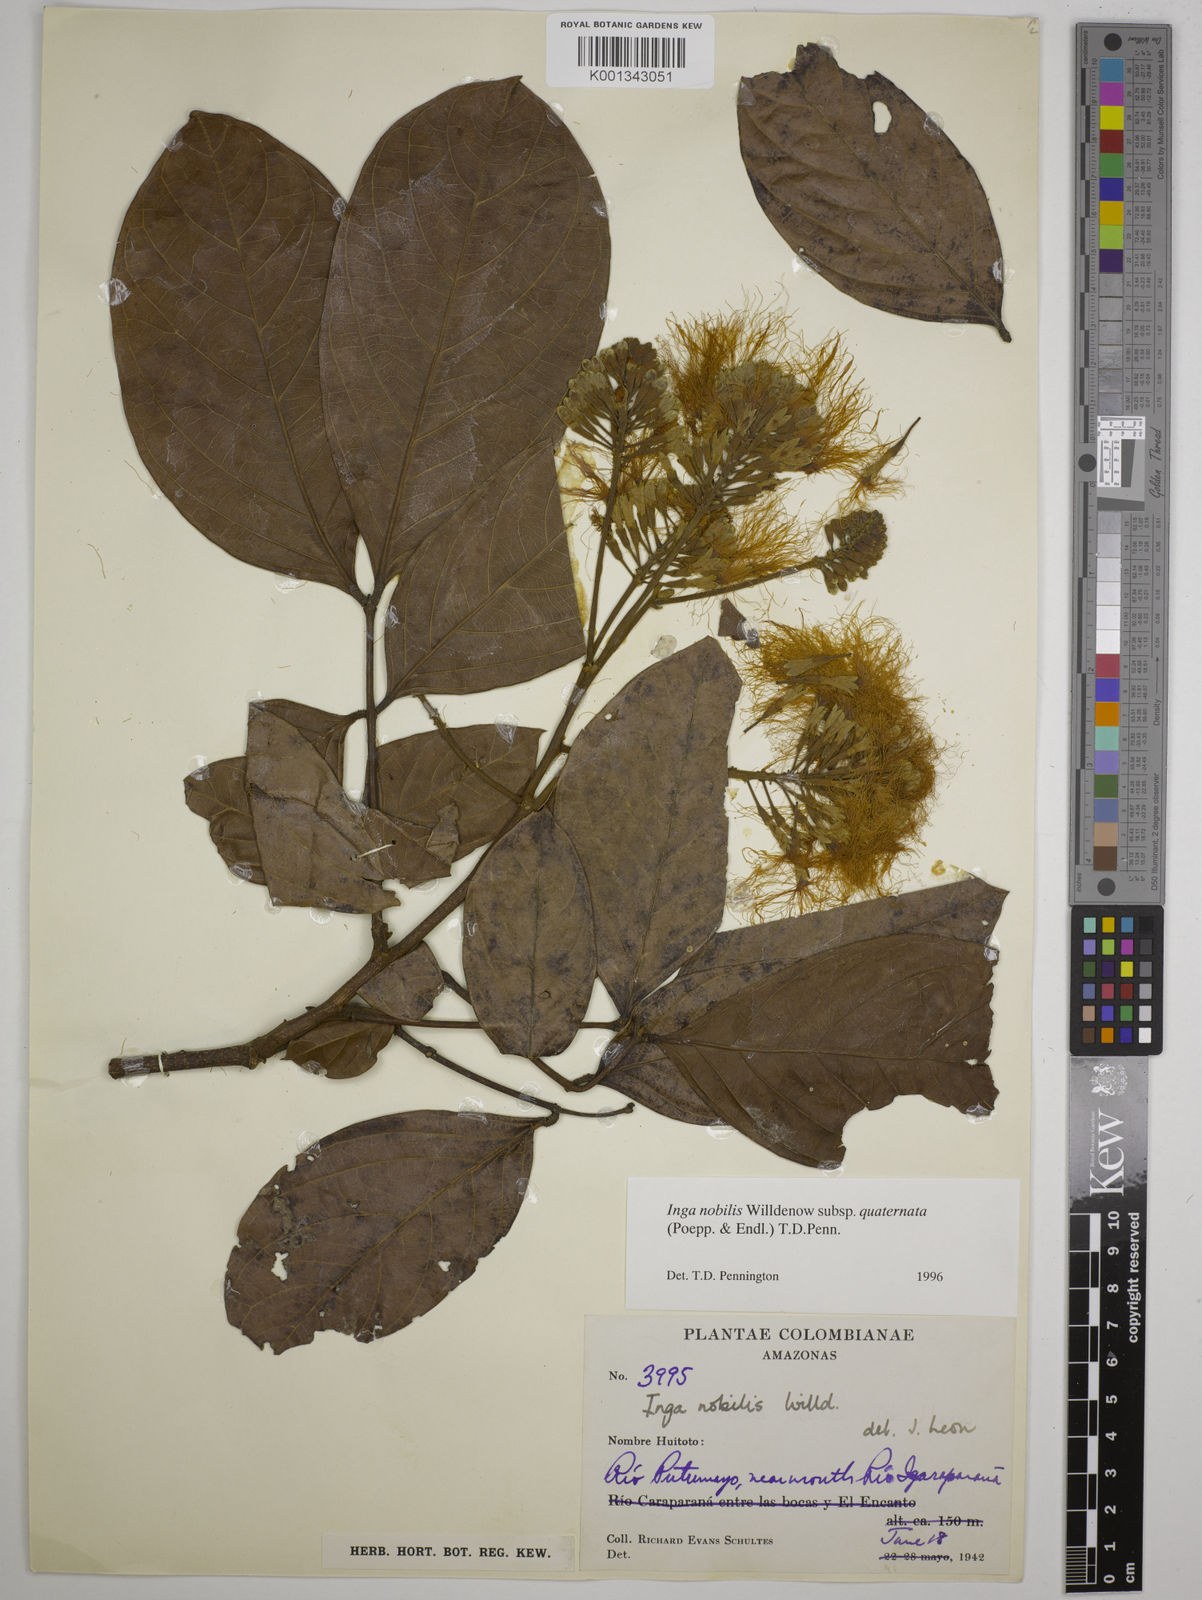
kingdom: Plantae
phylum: Tracheophyta
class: Magnoliopsida
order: Fabales
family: Fabaceae
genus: Inga
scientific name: Inga nobilis
